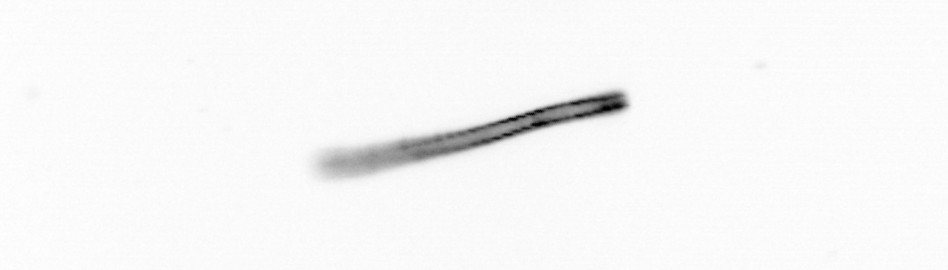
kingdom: Chromista
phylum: Ochrophyta
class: Bacillariophyceae
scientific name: Bacillariophyceae
